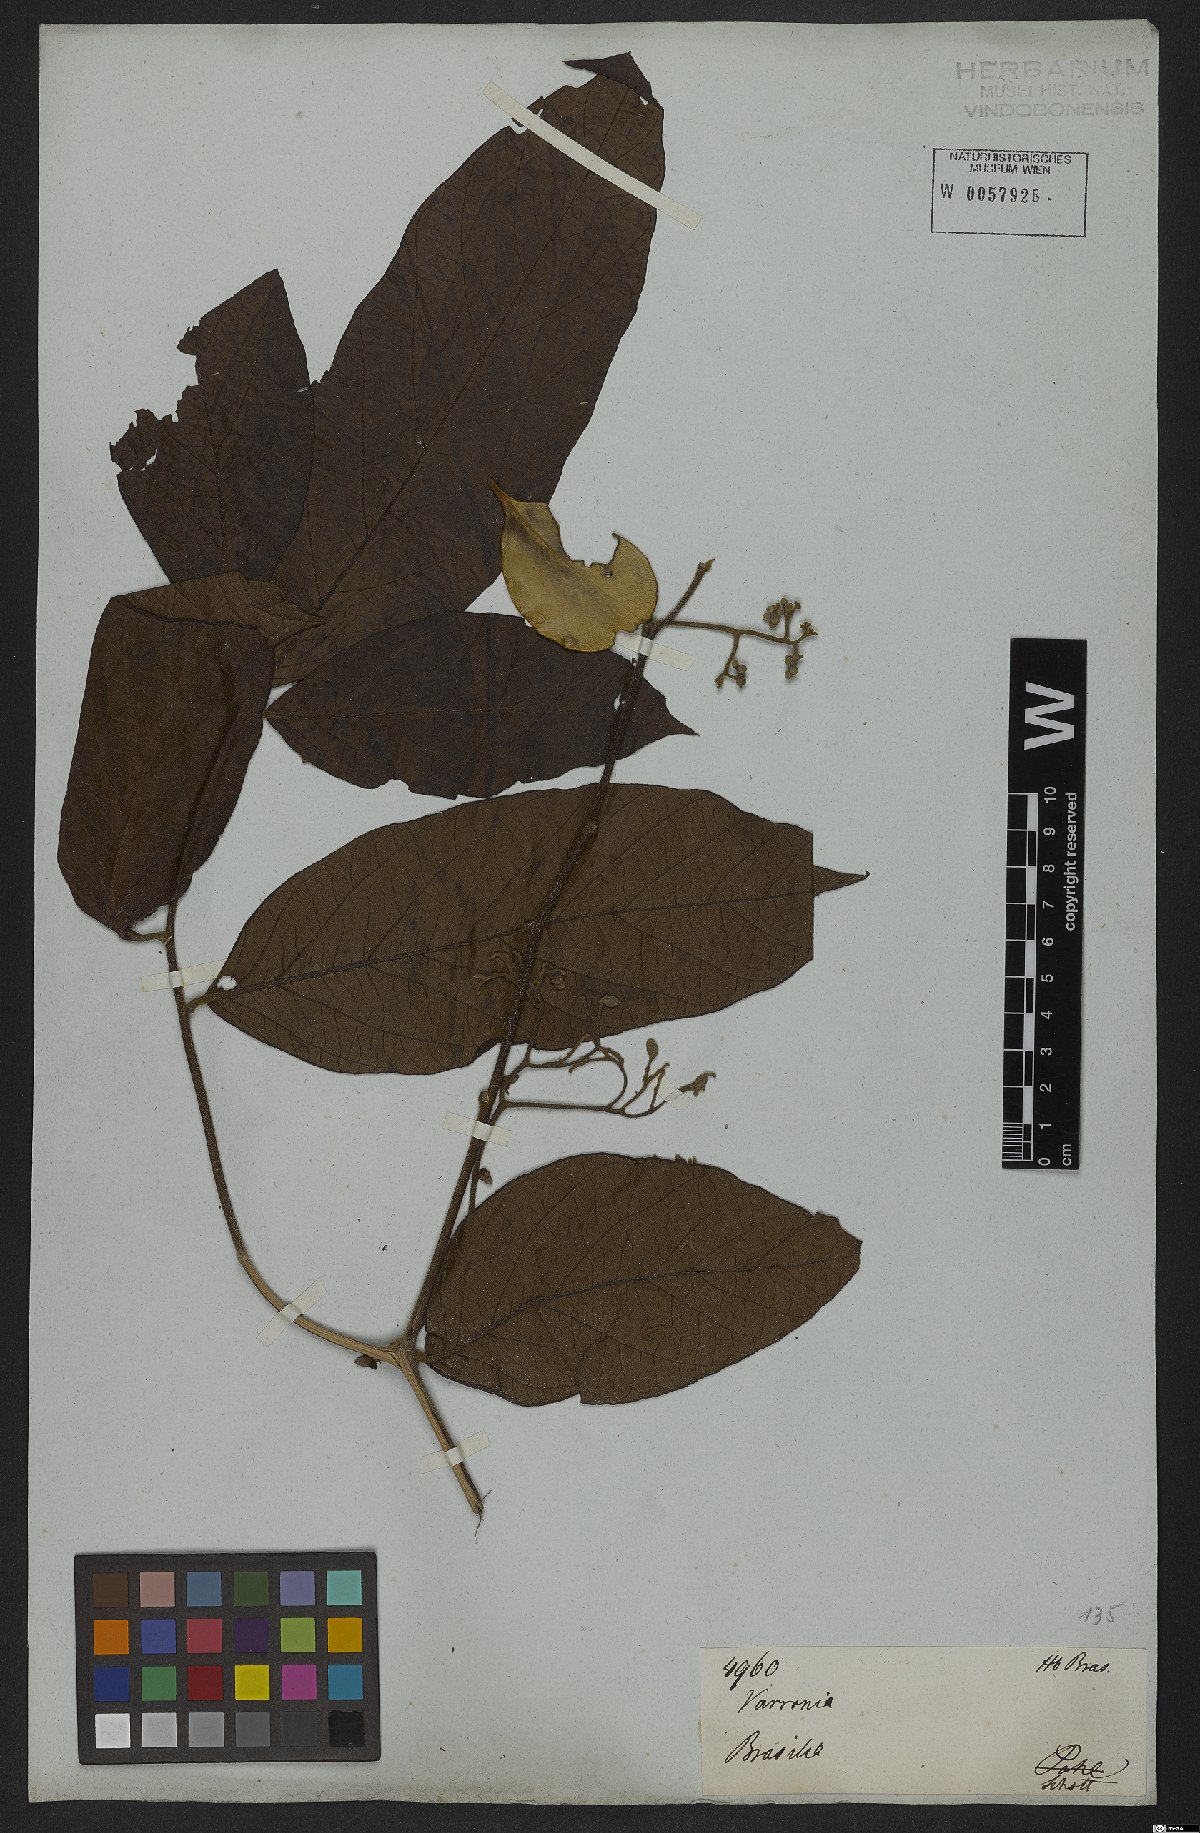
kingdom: Plantae
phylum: Tracheophyta
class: Magnoliopsida
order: Boraginales
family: Cordiaceae
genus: Cordia
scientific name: Cordia
